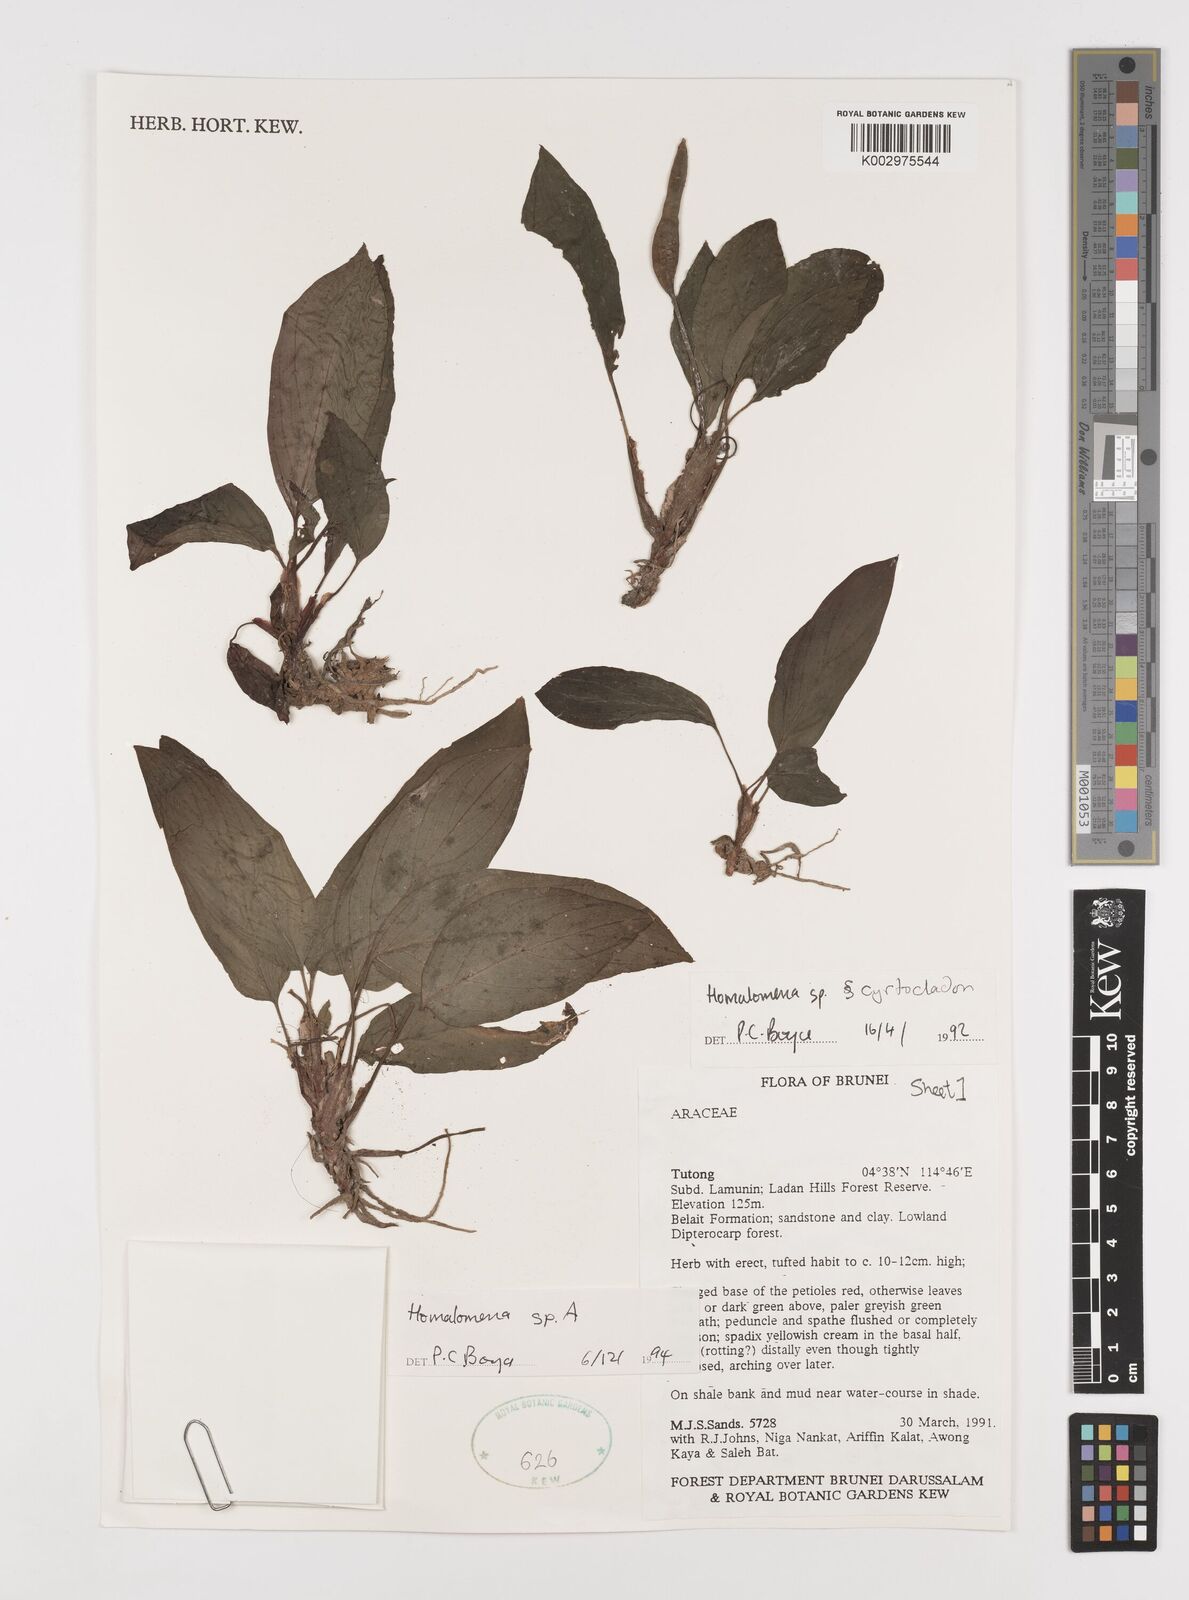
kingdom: Plantae
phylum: Tracheophyta
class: Liliopsida
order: Alismatales
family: Araceae
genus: Homalomena
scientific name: Homalomena
